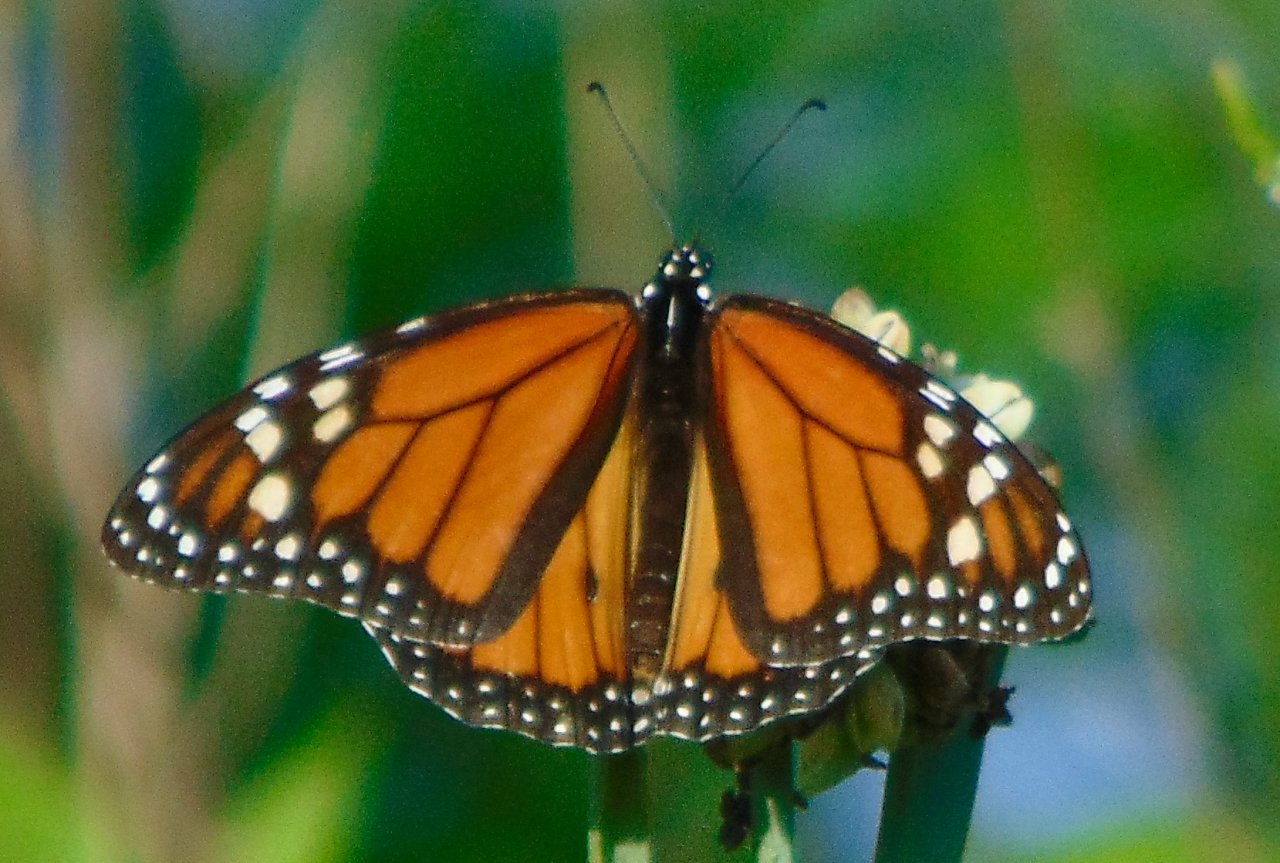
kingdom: Animalia
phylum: Arthropoda
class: Insecta
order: Lepidoptera
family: Nymphalidae
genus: Danaus
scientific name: Danaus plexippus
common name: Monarch
